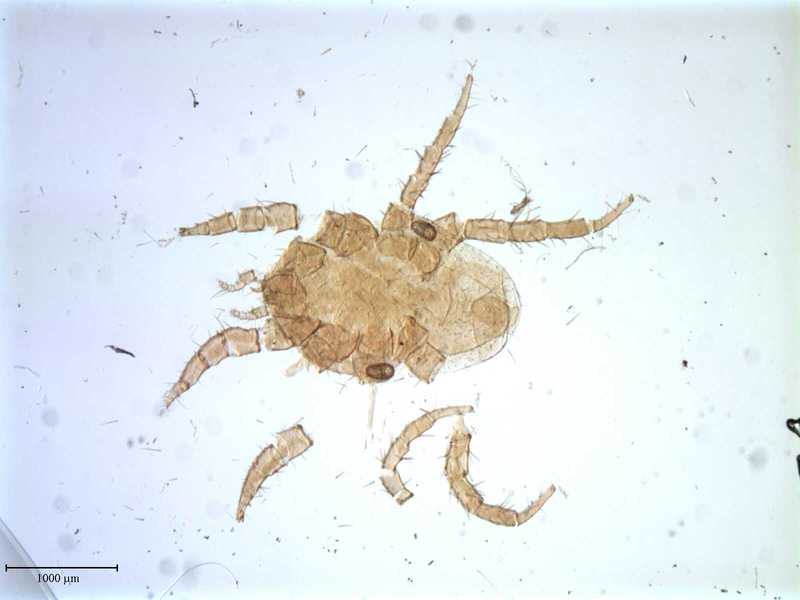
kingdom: Animalia
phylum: Arthropoda
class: Arachnida
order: Mesostigmata
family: Laelapidae
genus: Dinogamasus
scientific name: Dinogamasus
